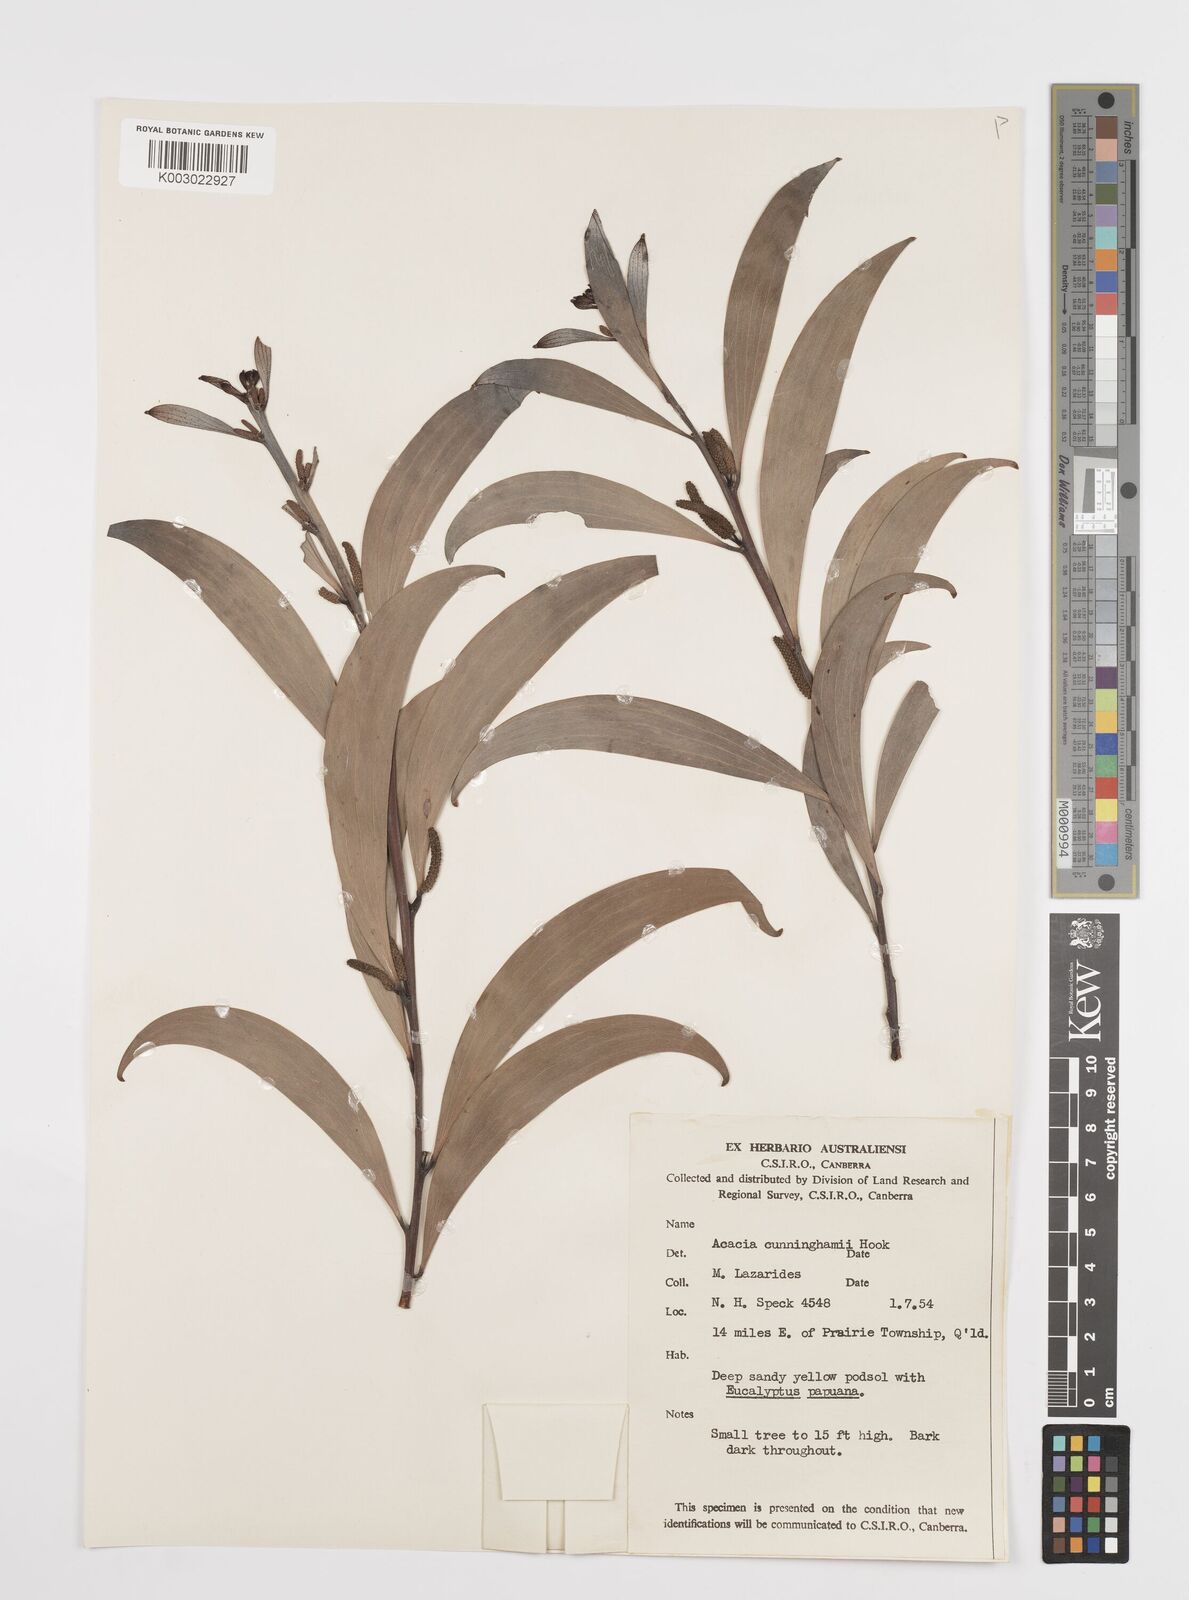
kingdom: Plantae
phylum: Tracheophyta
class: Magnoliopsida
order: Fabales
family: Fabaceae
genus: Acacia
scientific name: Acacia longispicata
